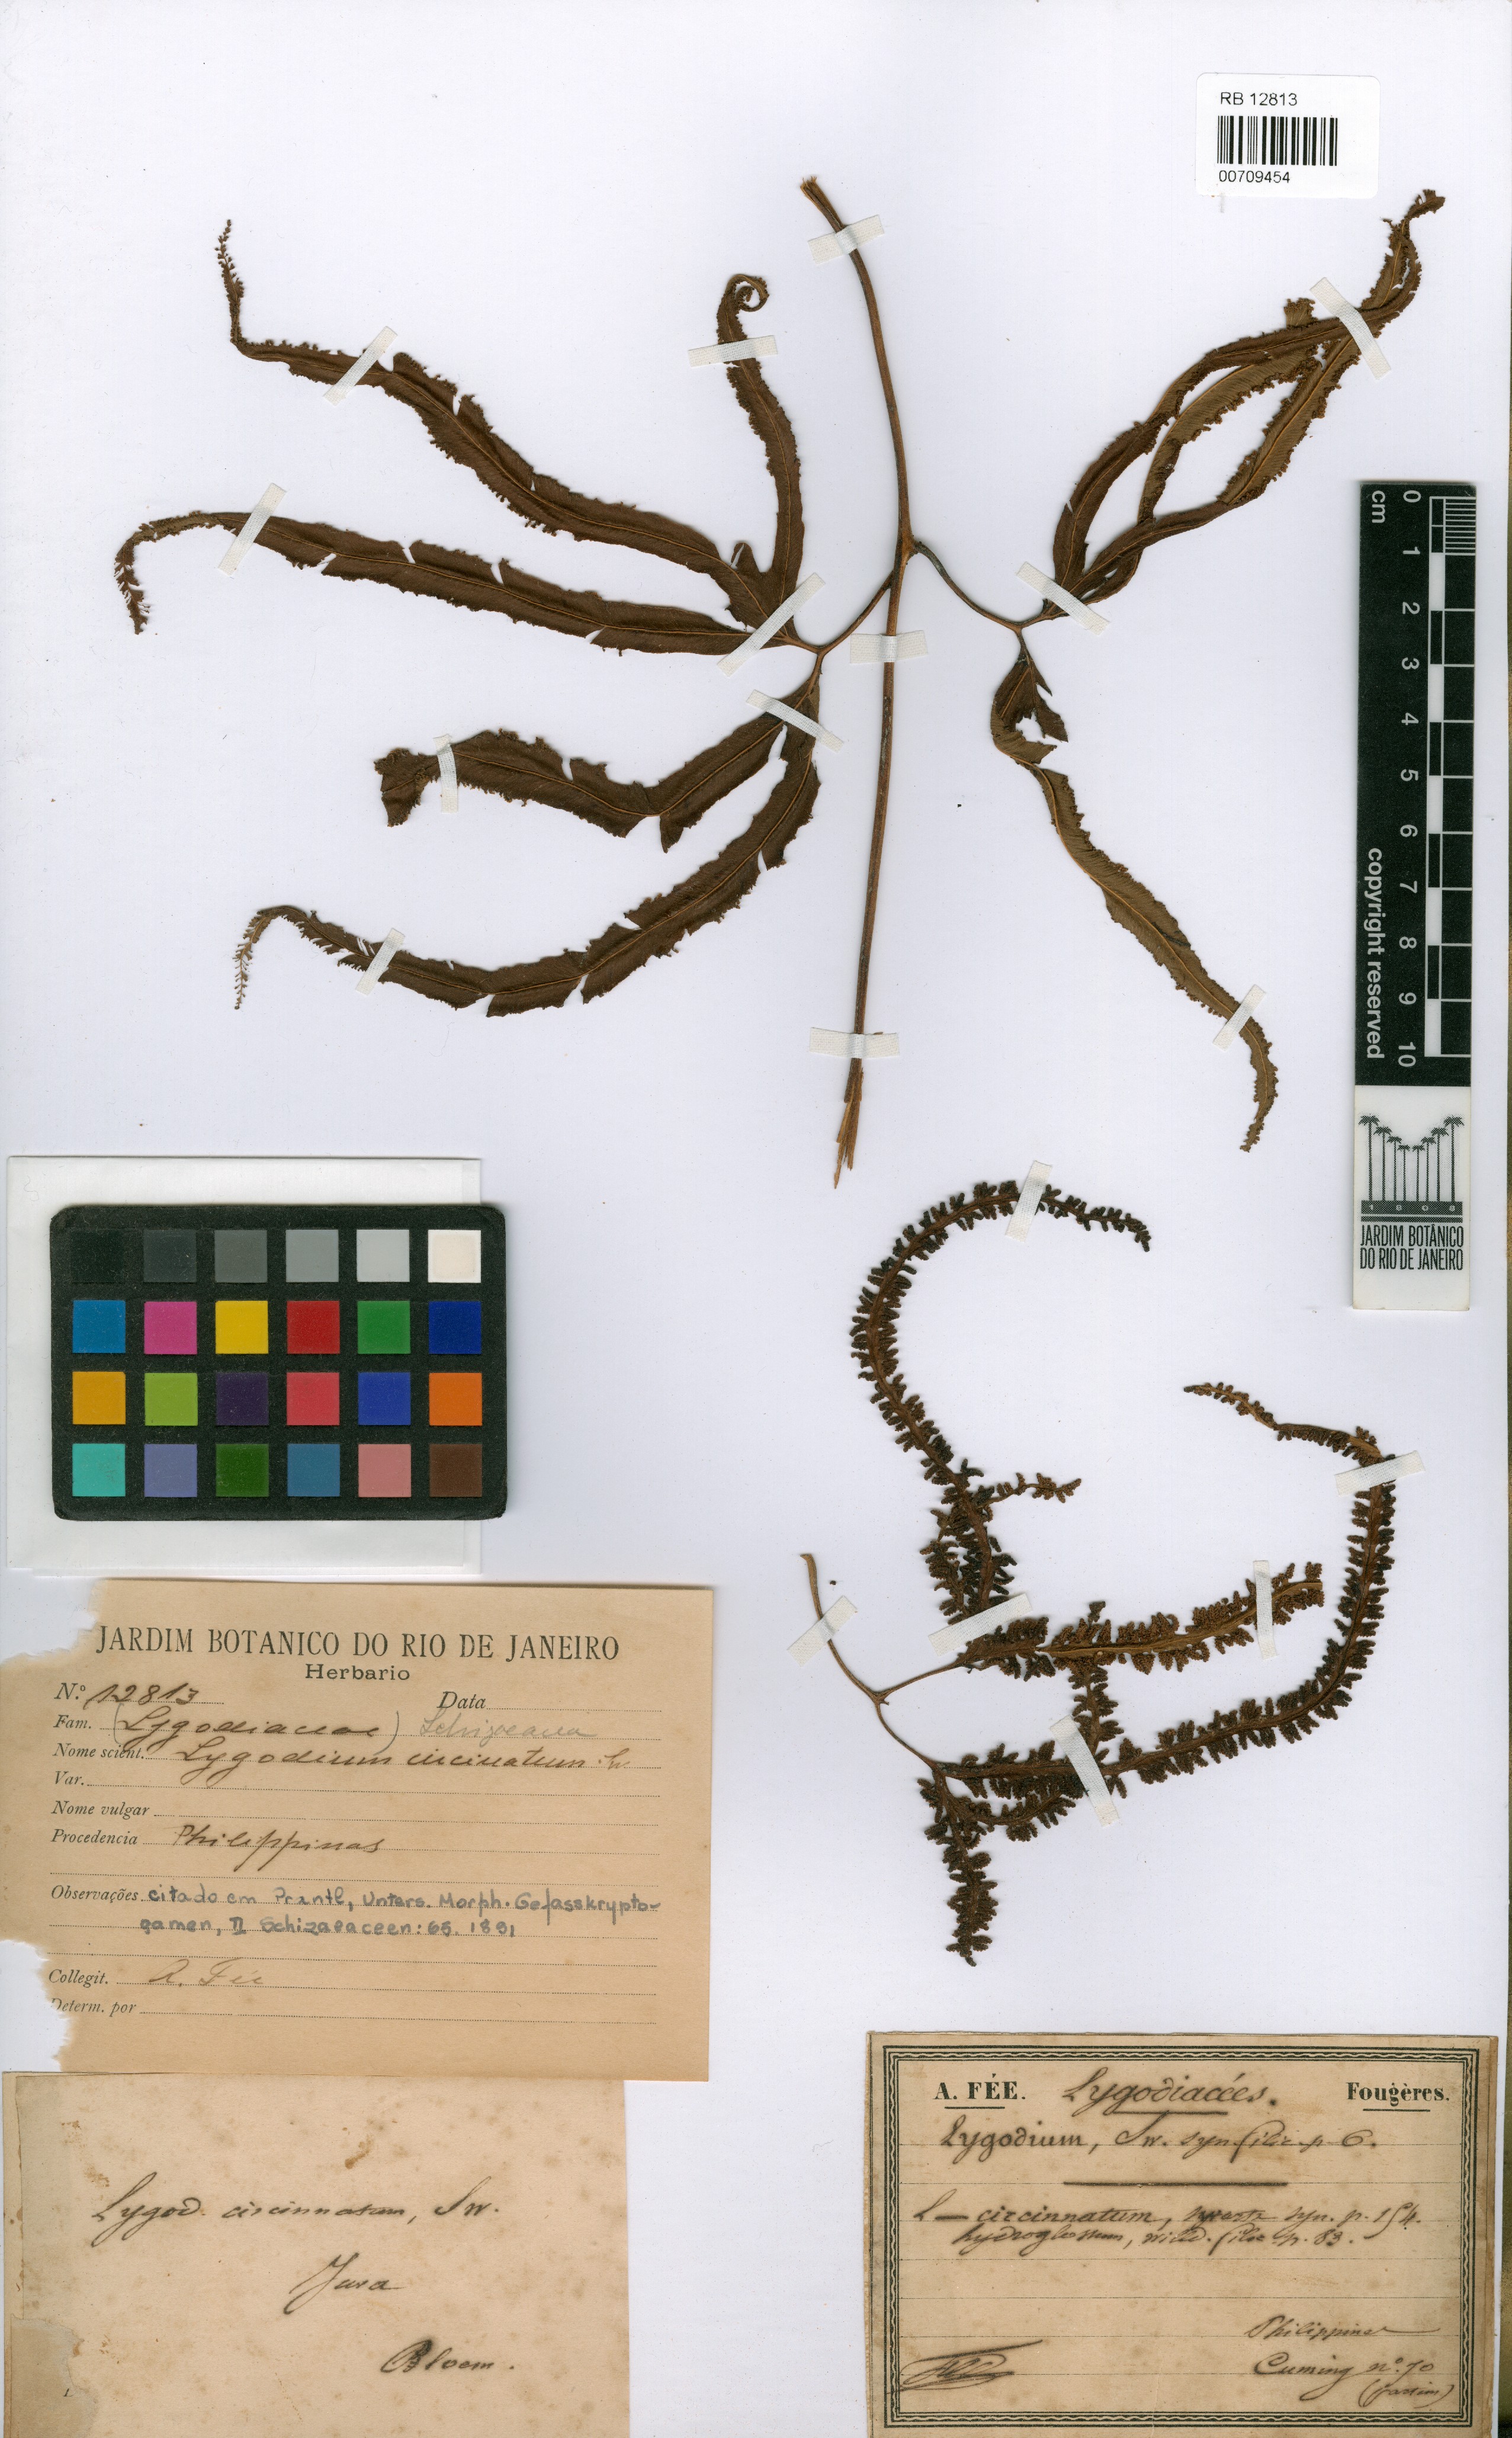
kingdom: Plantae
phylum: Tracheophyta
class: Polypodiopsida
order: Schizaeales
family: Lygodiaceae
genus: Lygodium
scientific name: Lygodium circinnatum
